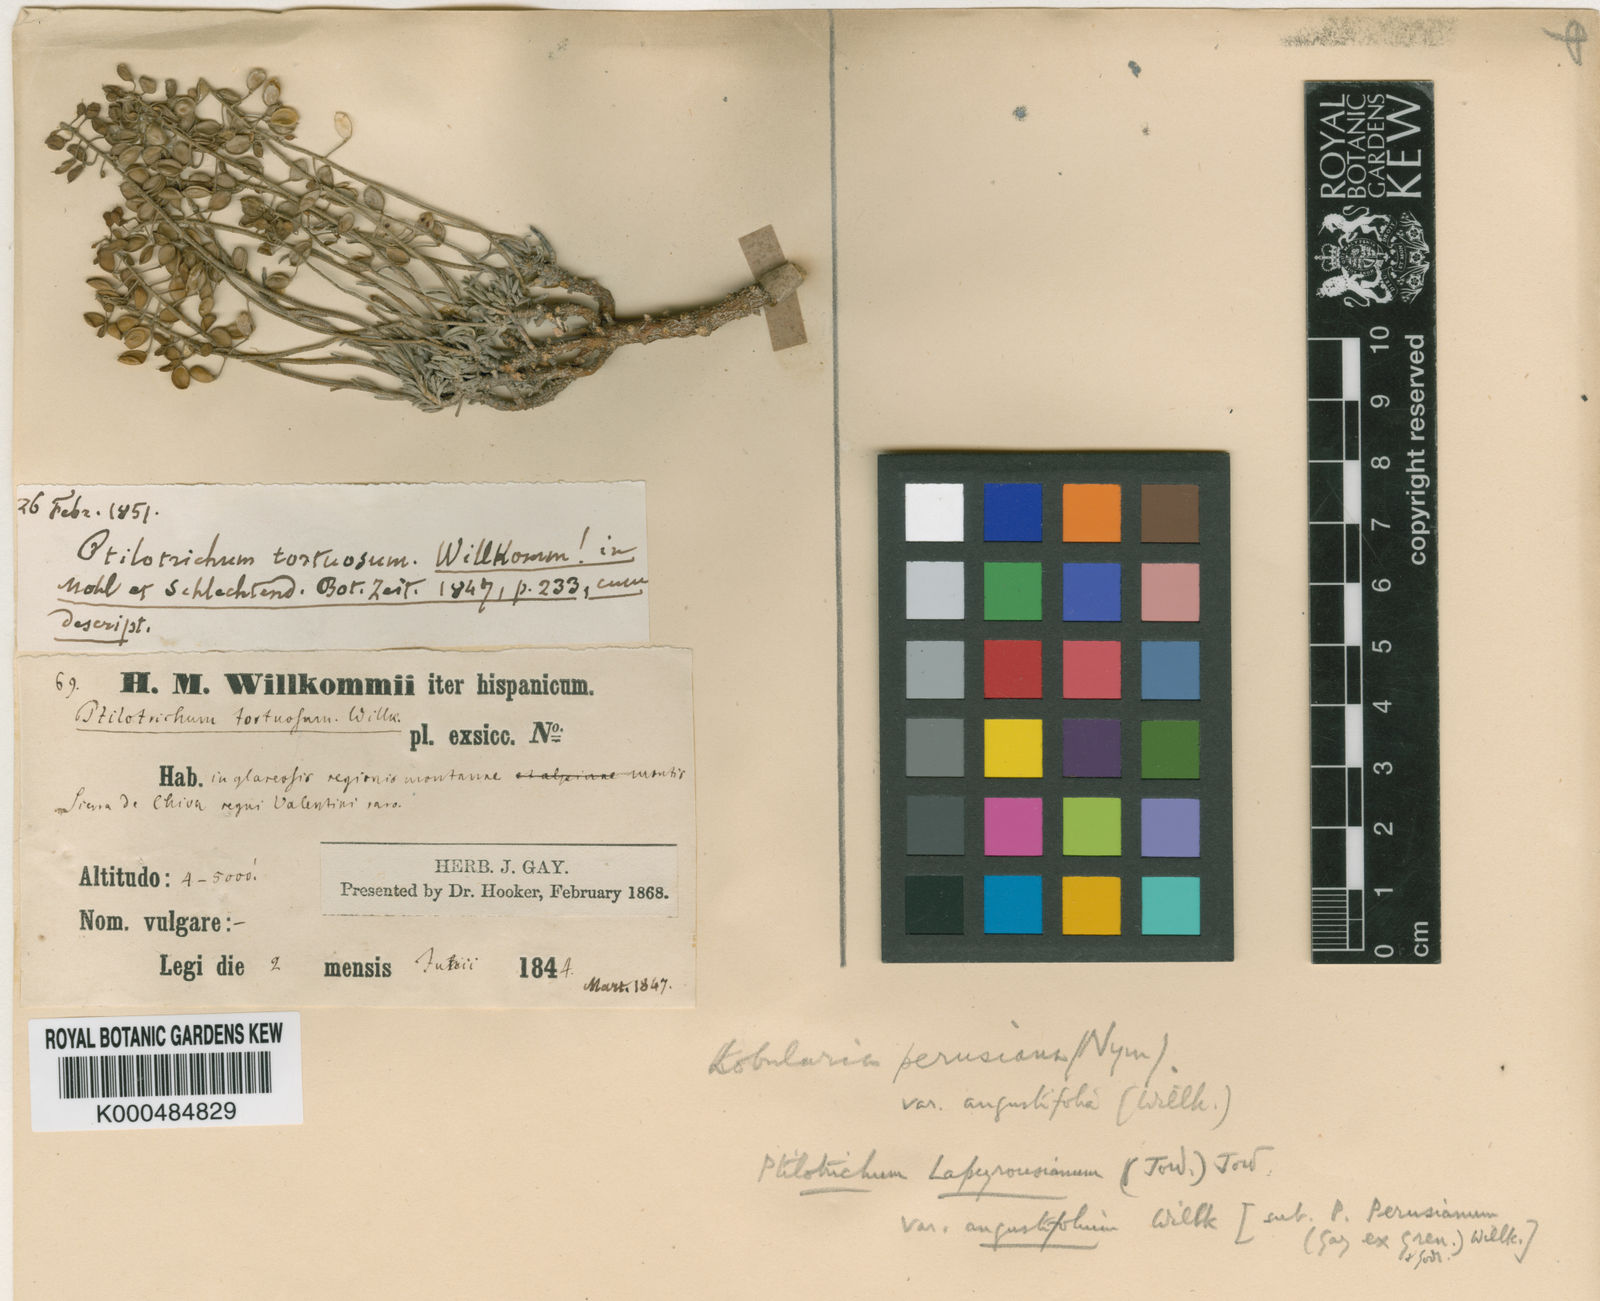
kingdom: Plantae
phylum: Tracheophyta
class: Magnoliopsida
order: Brassicales
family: Brassicaceae
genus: Hormathophylla
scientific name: Hormathophylla lapeyrouseana
